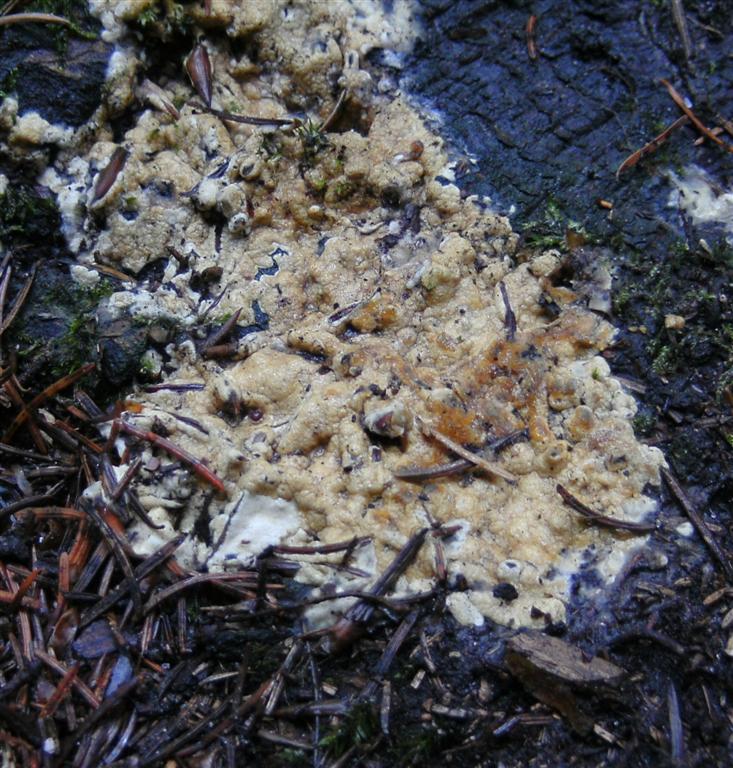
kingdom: Fungi
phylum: Ascomycota
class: Sordariomycetes
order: Hypocreales
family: Hypocreaceae
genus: Trichoderma
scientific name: Trichoderma citrinum
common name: udbredt kødkerne
